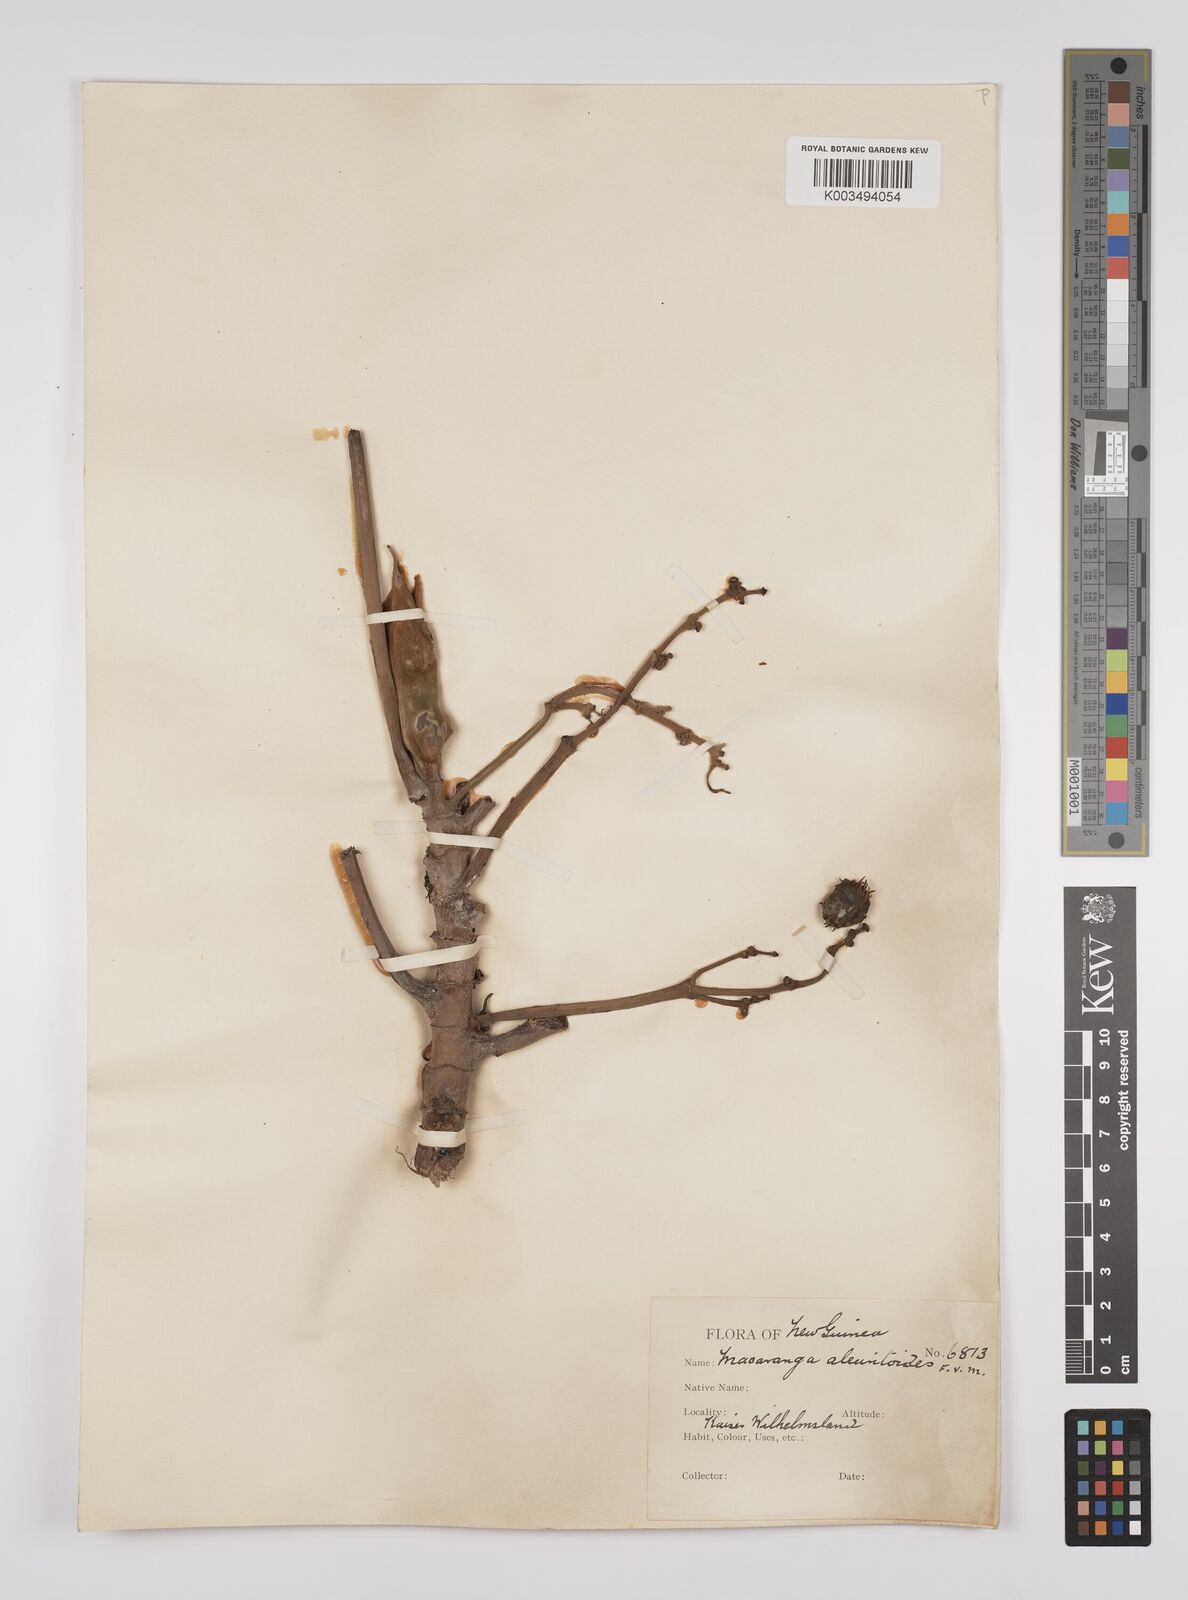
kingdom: Plantae
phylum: Tracheophyta
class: Magnoliopsida
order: Malpighiales
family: Euphorbiaceae
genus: Macaranga
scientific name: Macaranga aleuritoides
